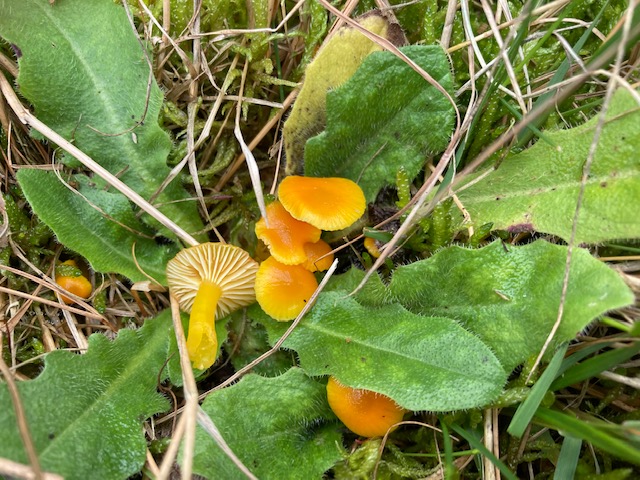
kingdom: Fungi
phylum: Basidiomycota
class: Agaricomycetes
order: Agaricales
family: Hygrophoraceae
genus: Hygrocybe
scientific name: Hygrocybe ceracea
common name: voksgul vokshat
